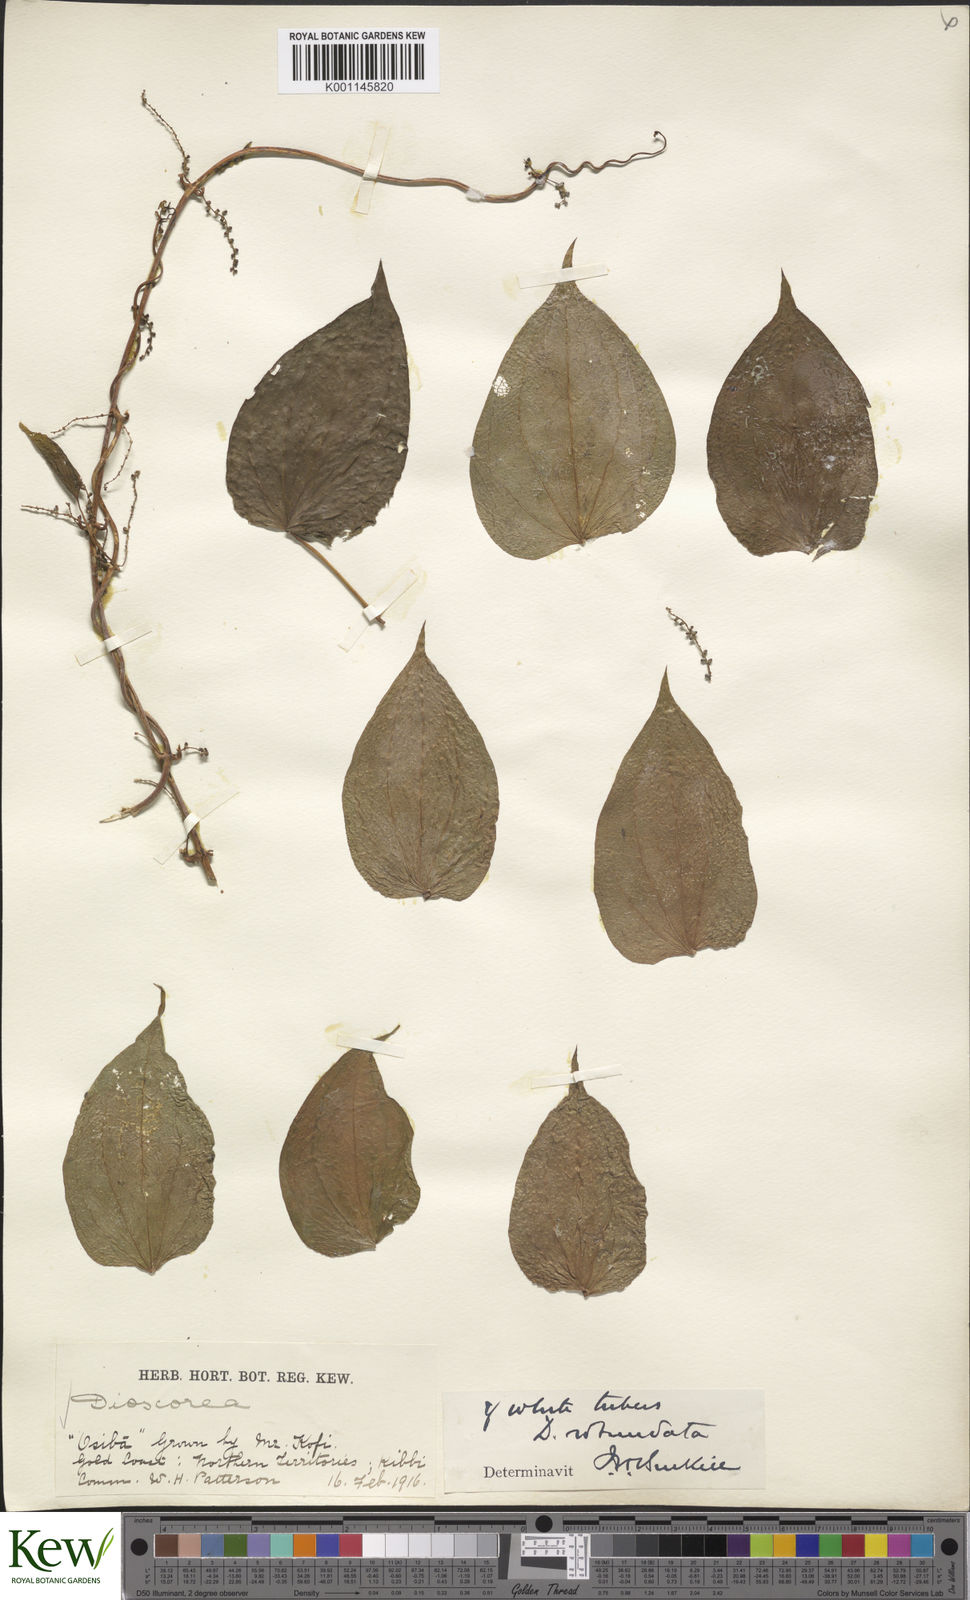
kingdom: Plantae
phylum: Tracheophyta
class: Liliopsida
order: Dioscoreales
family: Dioscoreaceae
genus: Dioscorea
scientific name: Dioscorea cayenensis
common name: Attoto yam
